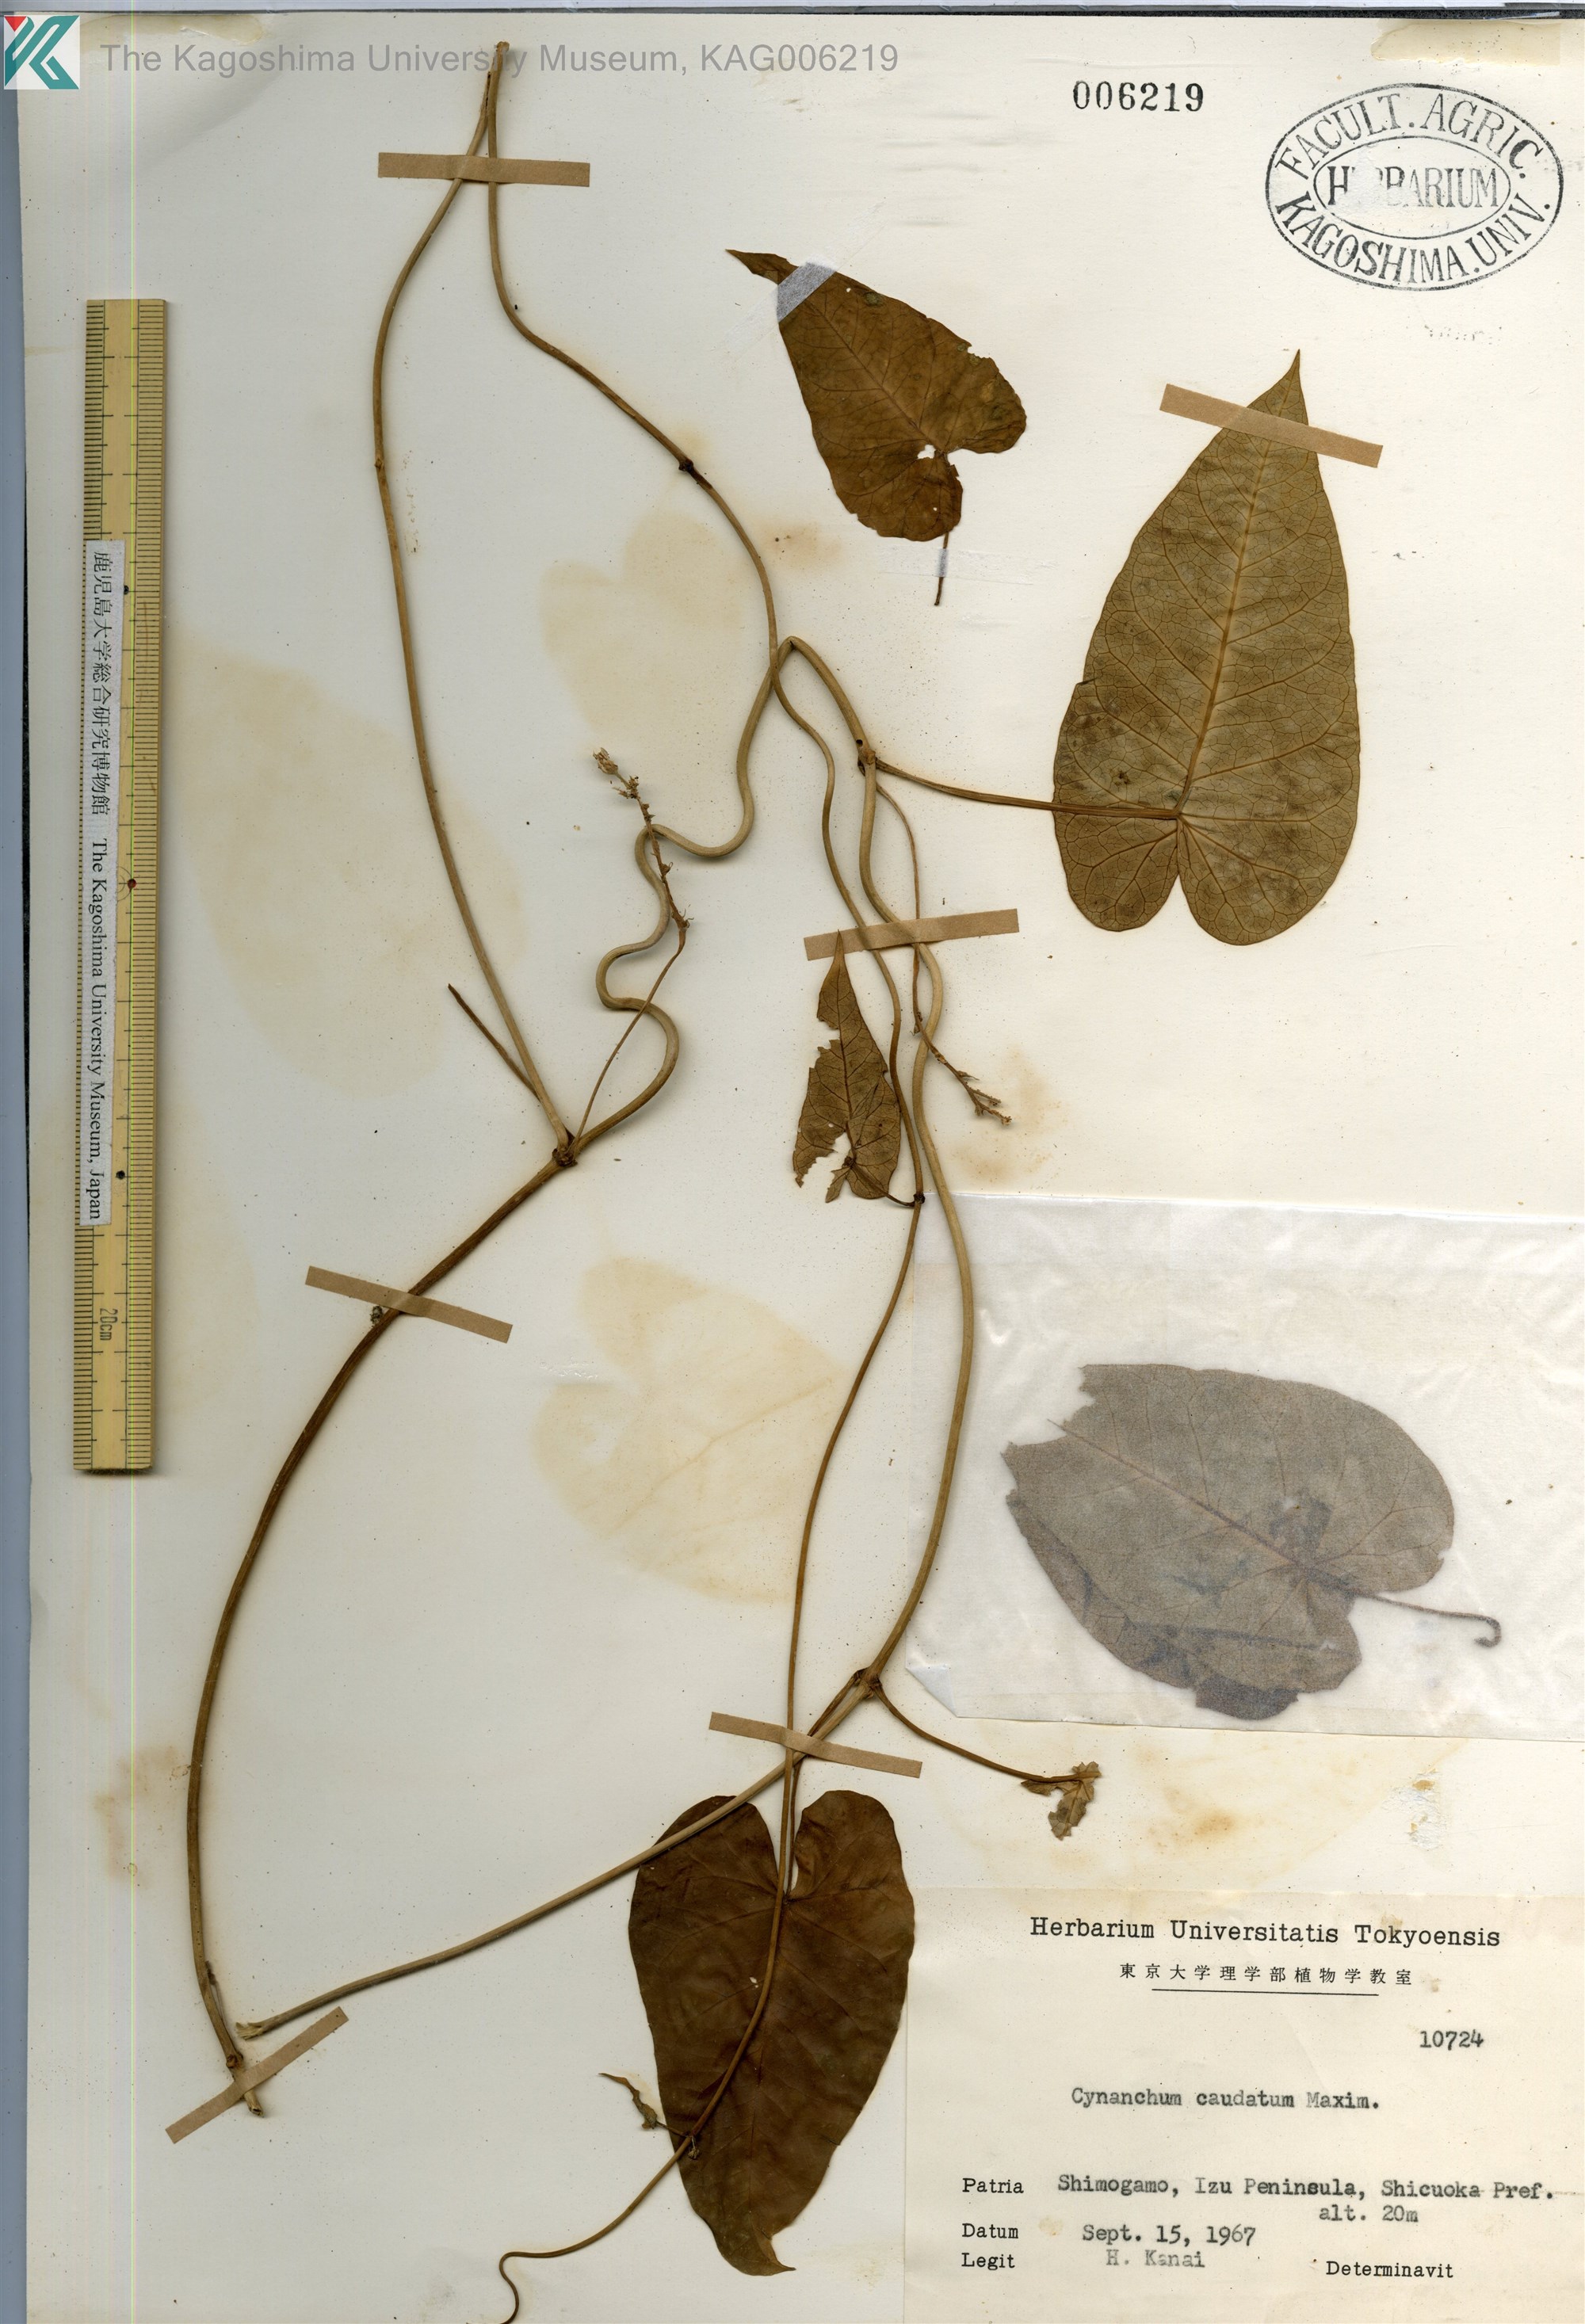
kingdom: Plantae
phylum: Tracheophyta
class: Magnoliopsida
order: Gentianales
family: Apocynaceae
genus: Cynanchum
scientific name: Cynanchum rostellatum
